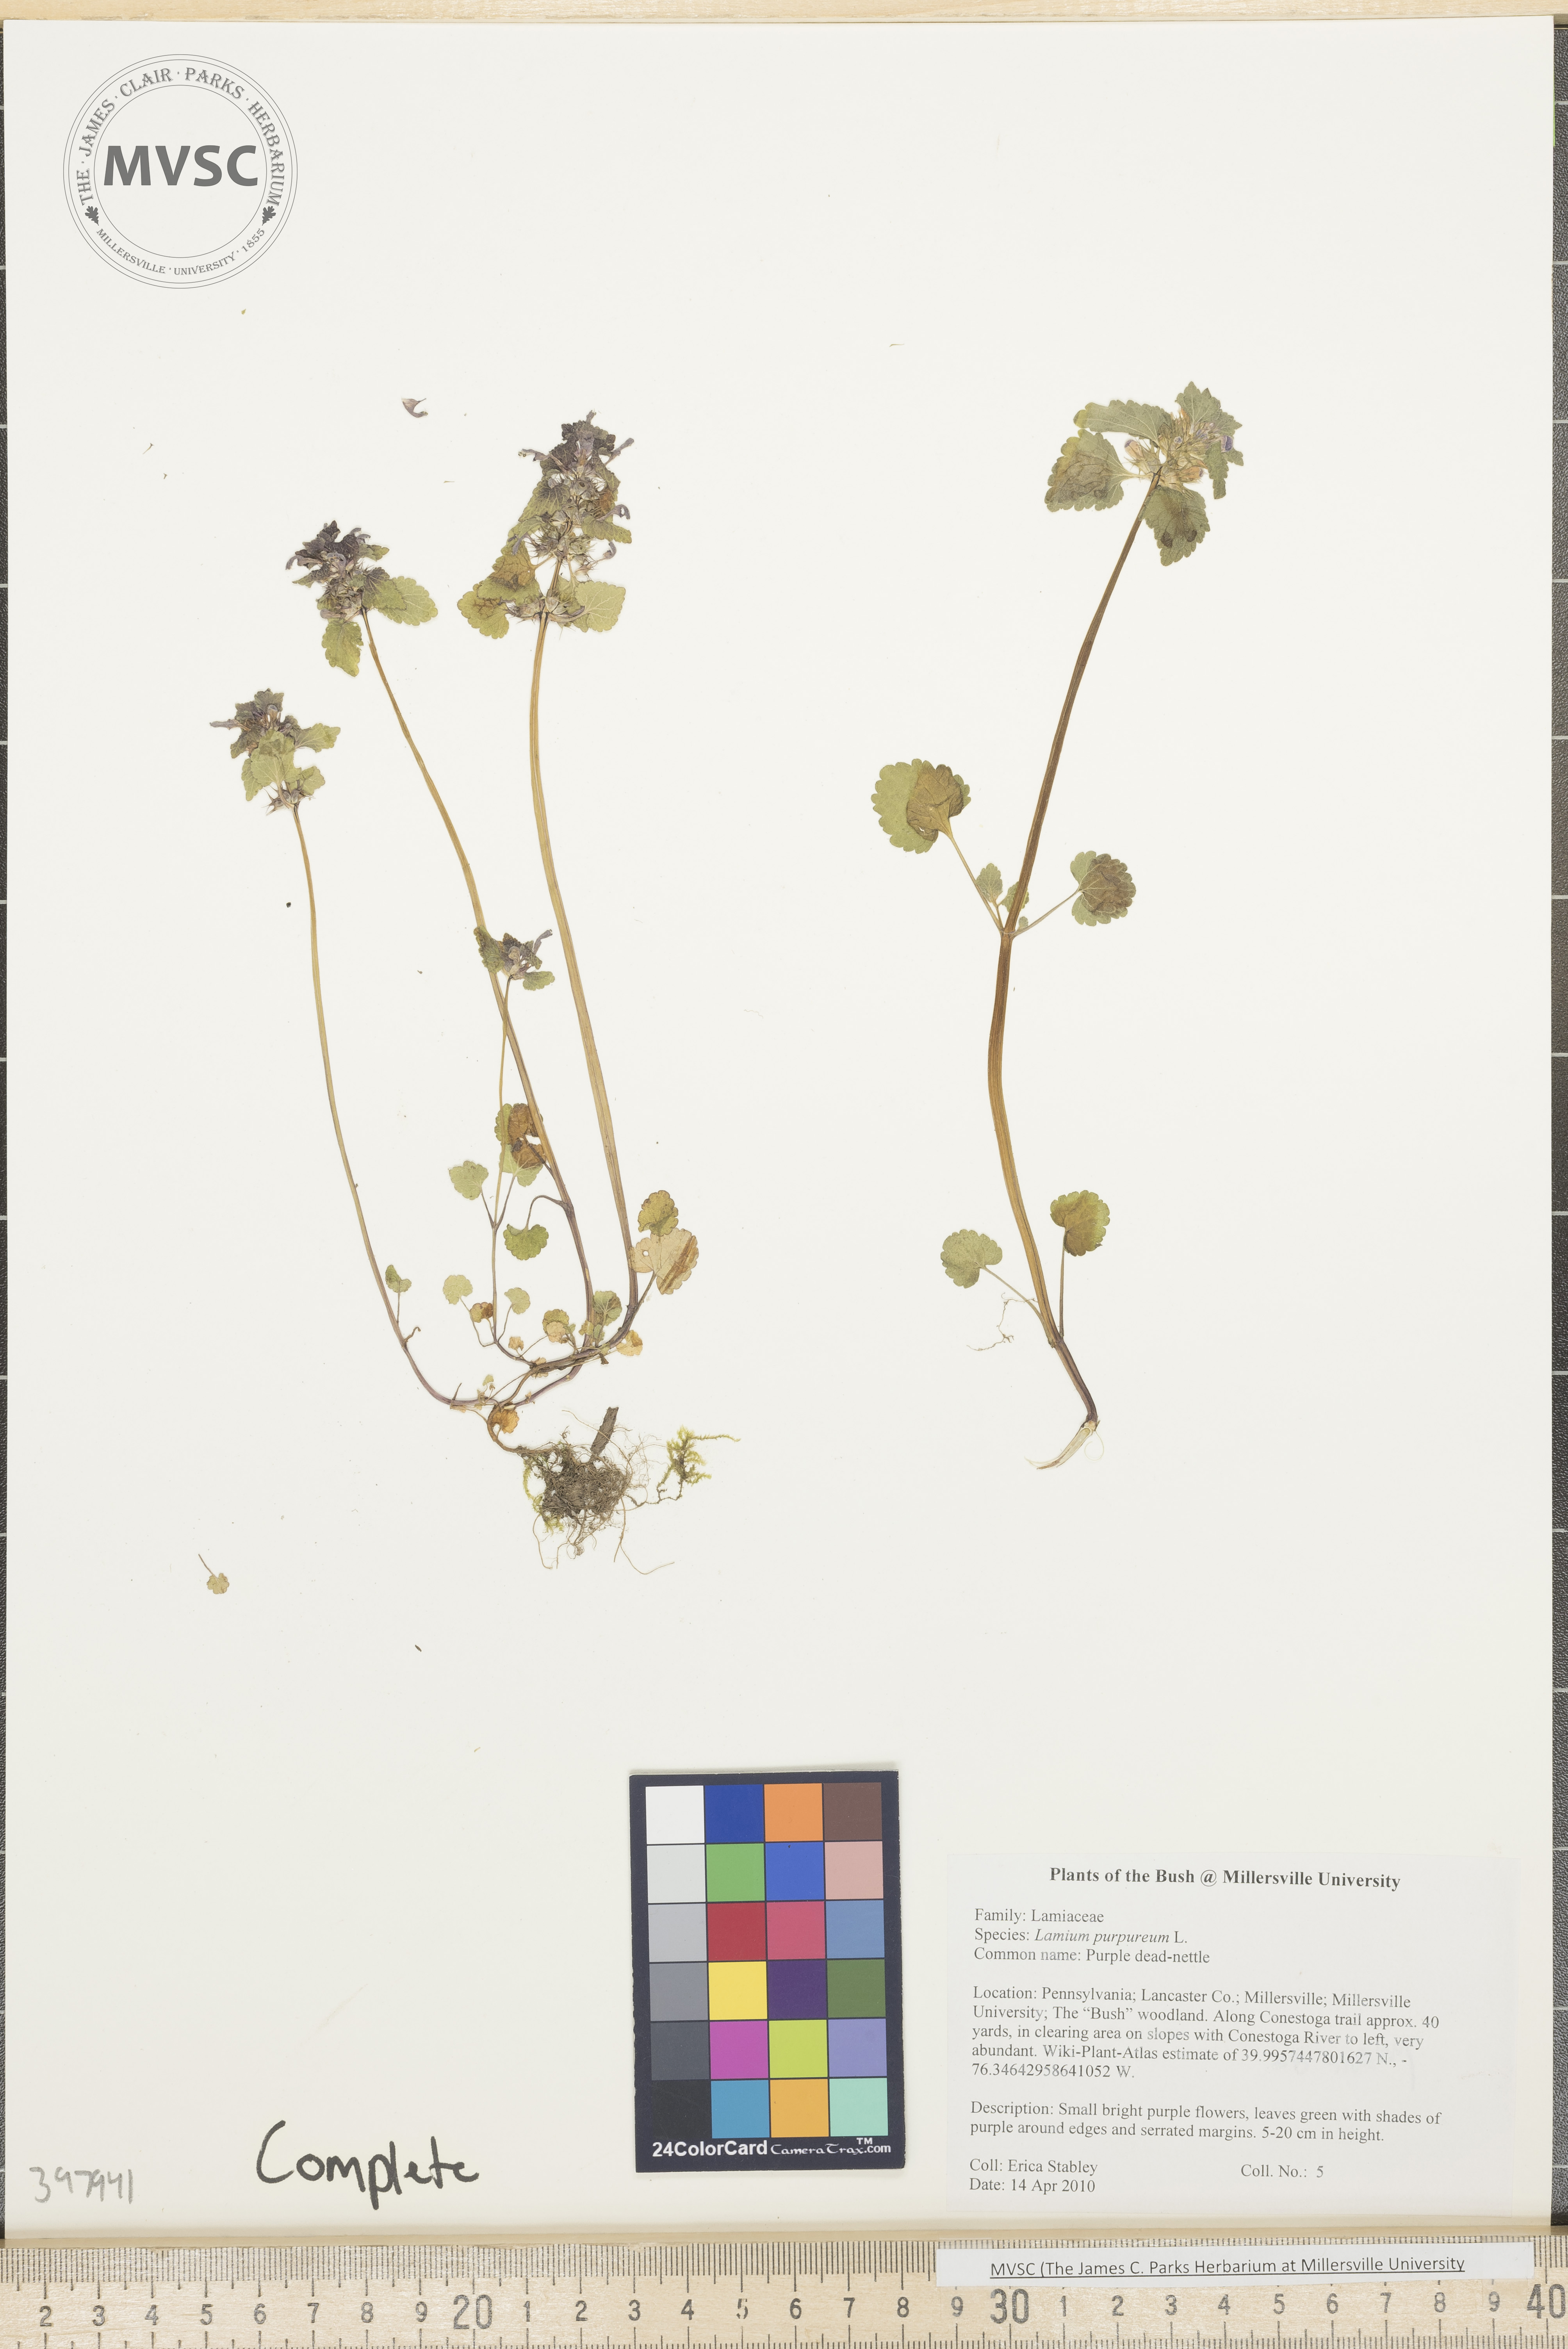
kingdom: Plantae
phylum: Tracheophyta
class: Magnoliopsida
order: Lamiales
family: Lamiaceae
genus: Lamium
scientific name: Lamium purpureum
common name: Purple dead-nettle
